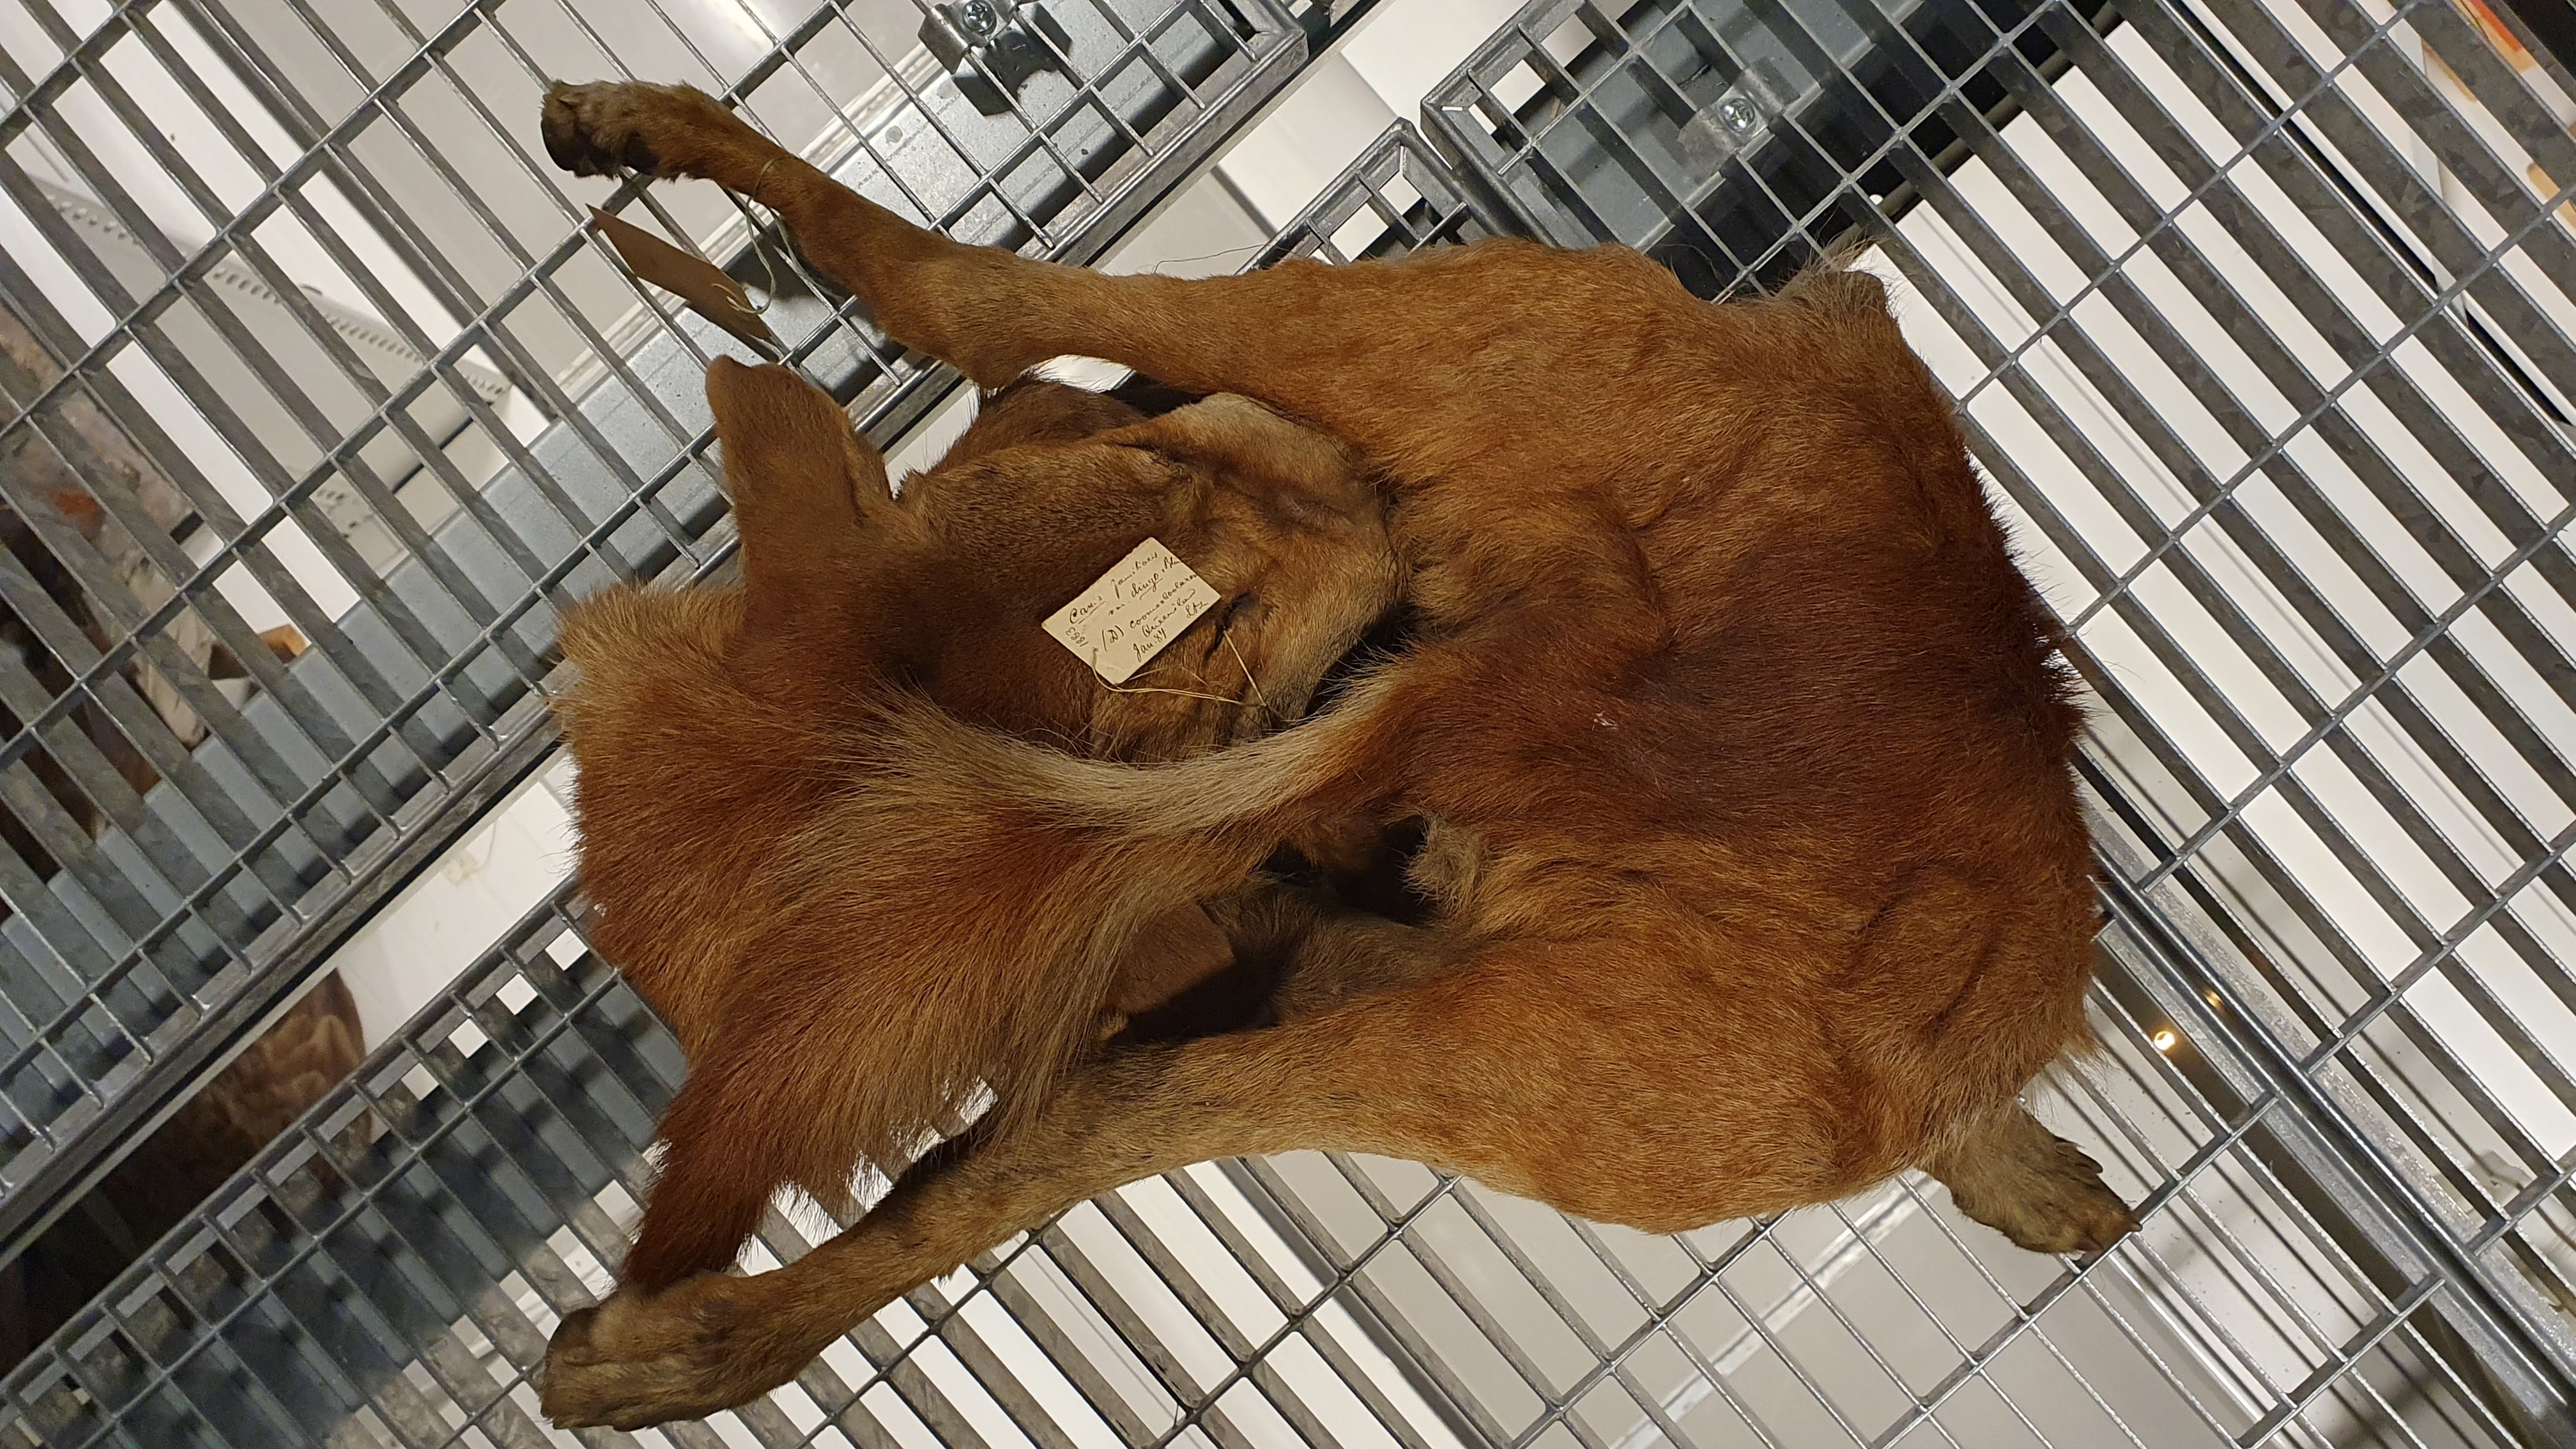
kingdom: Animalia
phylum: Chordata
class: Mammalia
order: Carnivora
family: Canidae
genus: Canis
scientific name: Canis lupus
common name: Gray wolf
